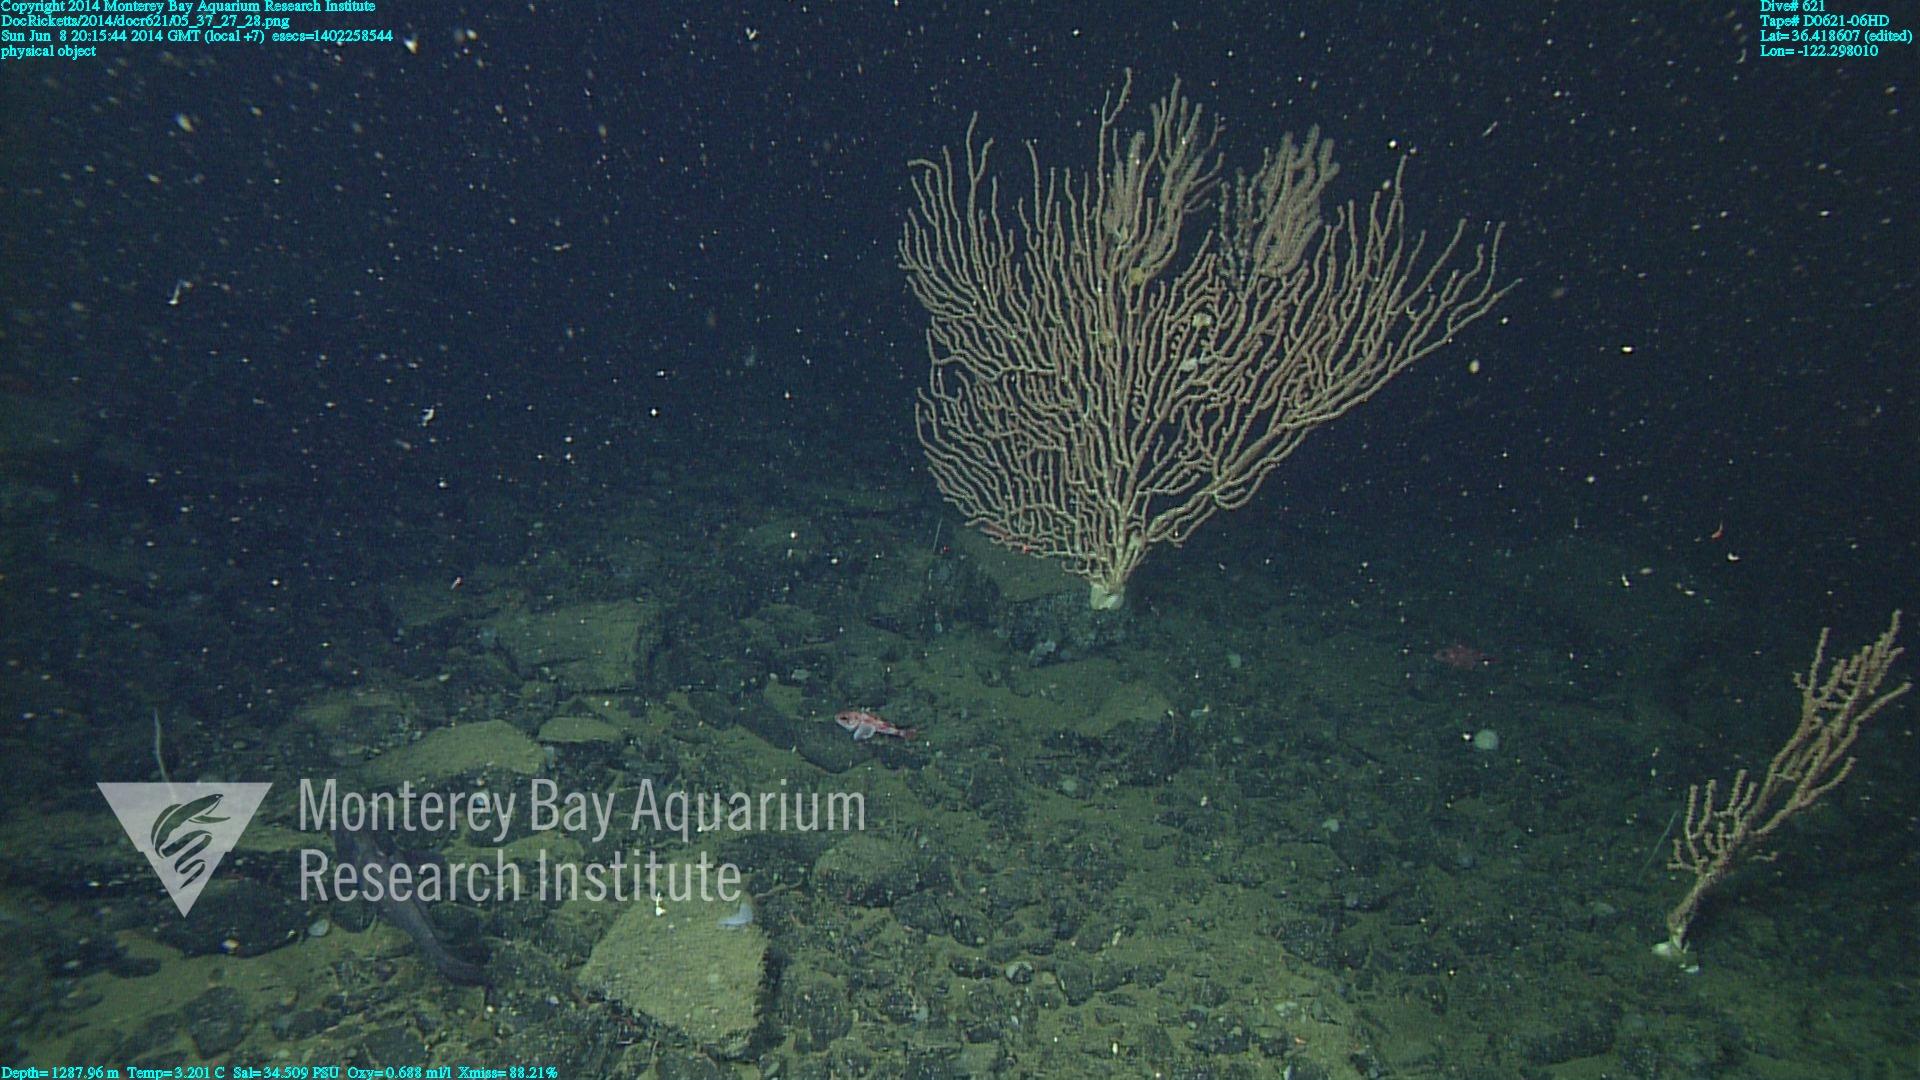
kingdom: Animalia
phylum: Cnidaria
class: Anthozoa
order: Scleralcyonacea
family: Keratoisididae
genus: Keratoisis
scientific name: Keratoisis
